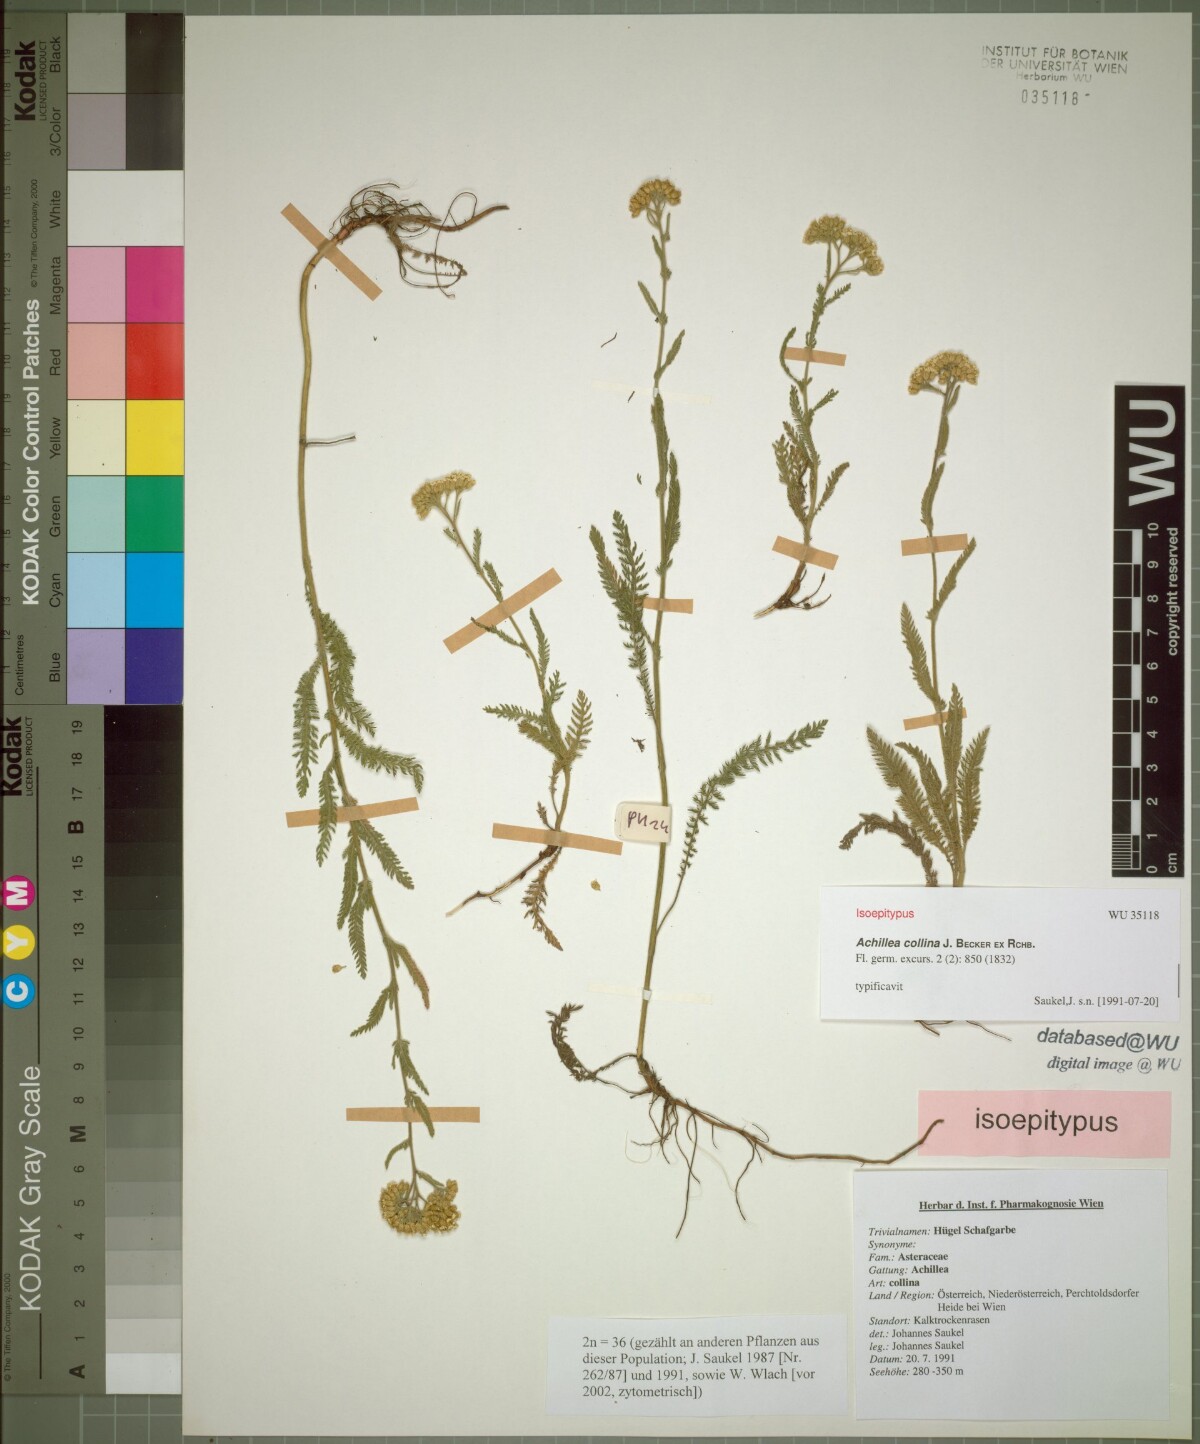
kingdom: Plantae
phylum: Tracheophyta
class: Magnoliopsida
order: Asterales
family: Asteraceae
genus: Achillea
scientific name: Achillea collina
